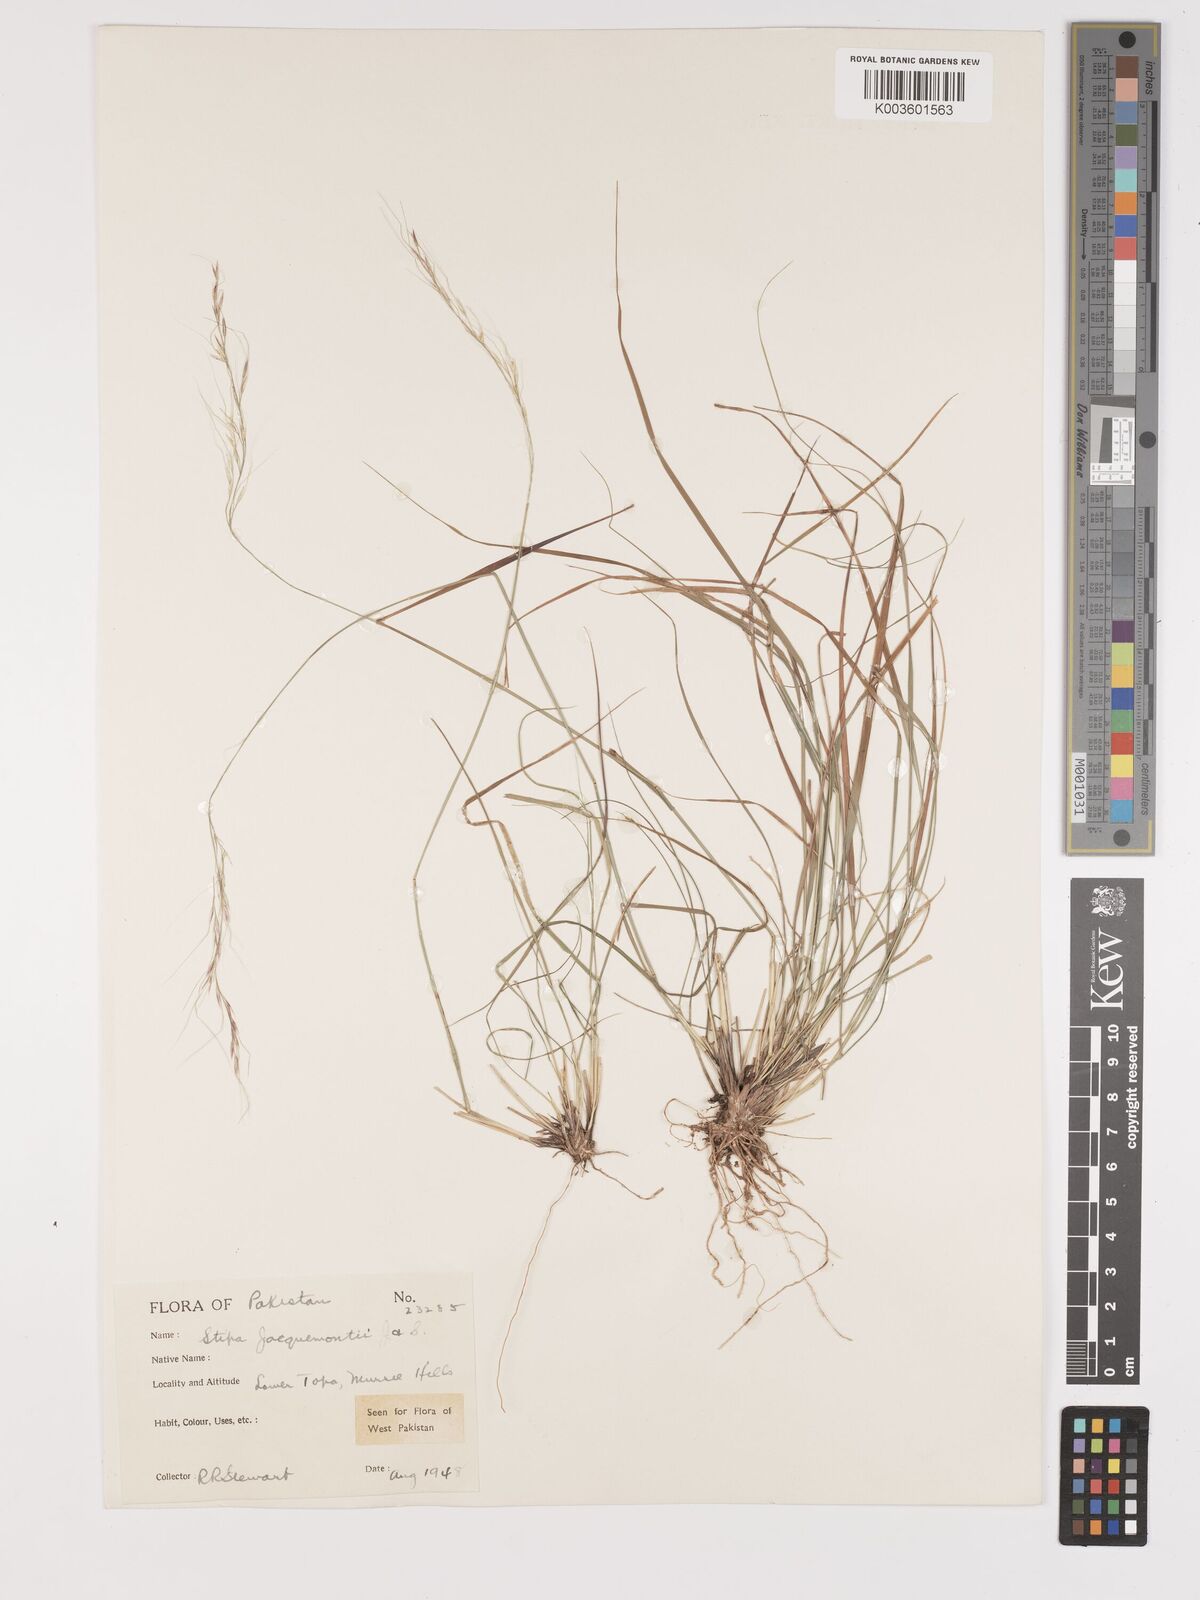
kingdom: Plantae
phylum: Tracheophyta
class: Liliopsida
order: Poales
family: Poaceae
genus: Achnatherum
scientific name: Achnatherum jacquemontii
